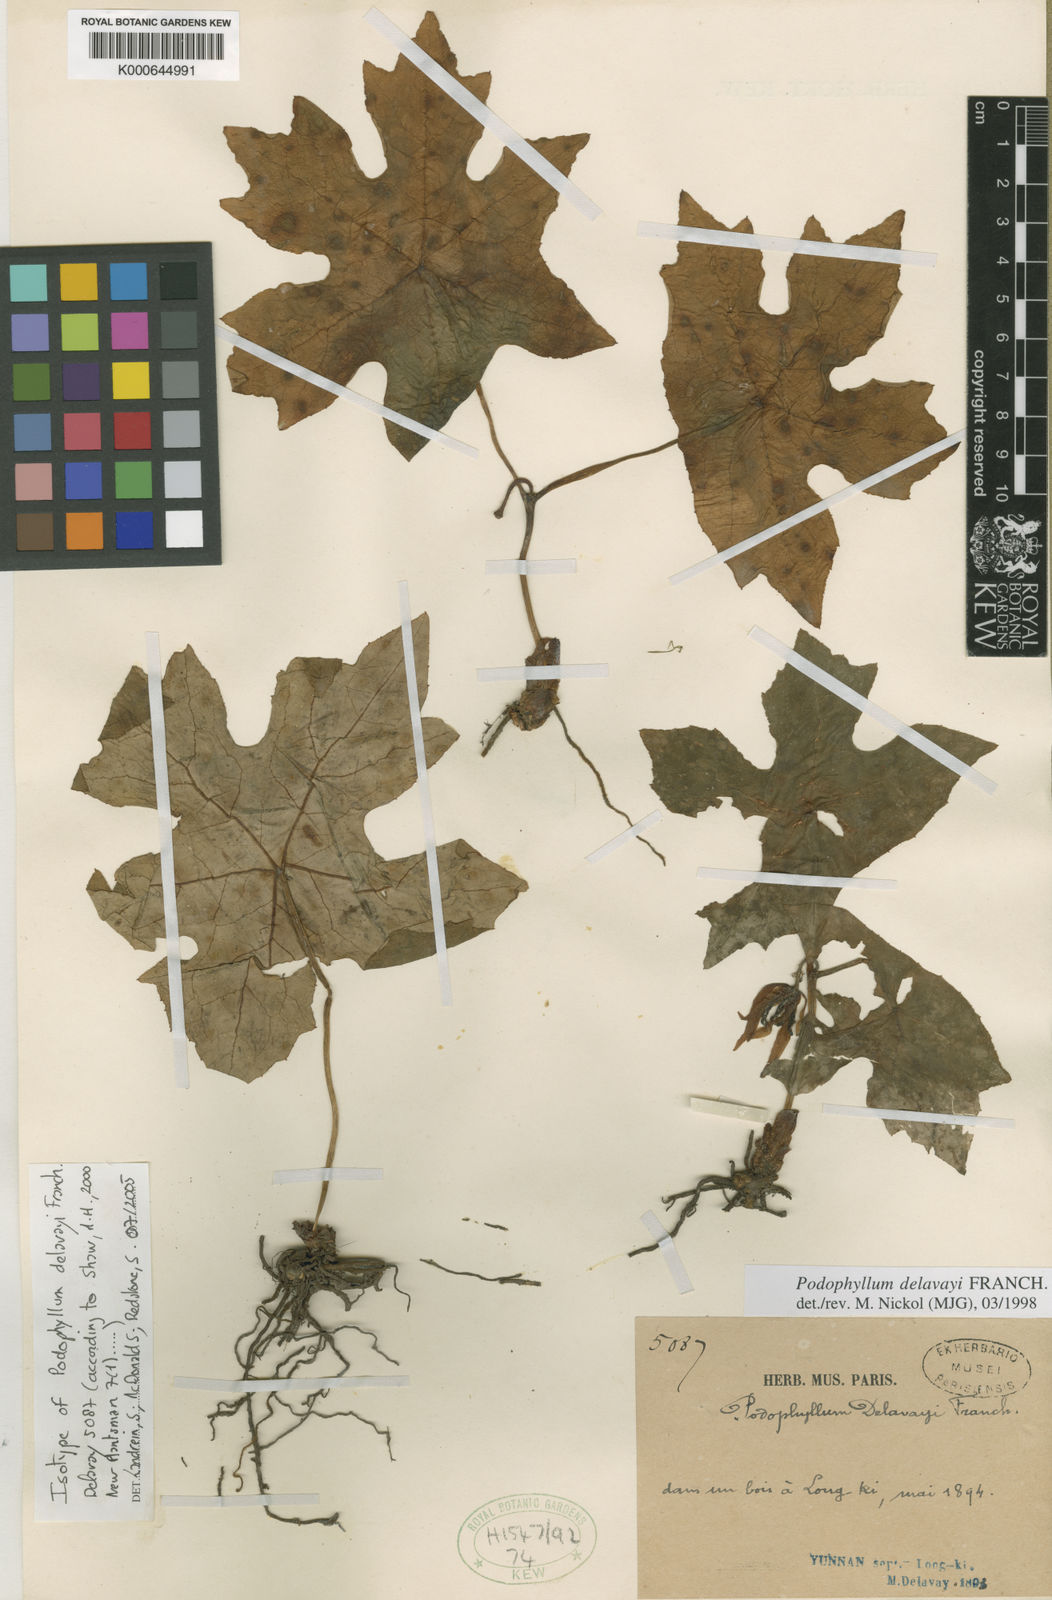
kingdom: Plantae
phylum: Tracheophyta
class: Magnoliopsida
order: Ranunculales
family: Berberidaceae
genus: Dysosma
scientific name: Dysosma delavayi
